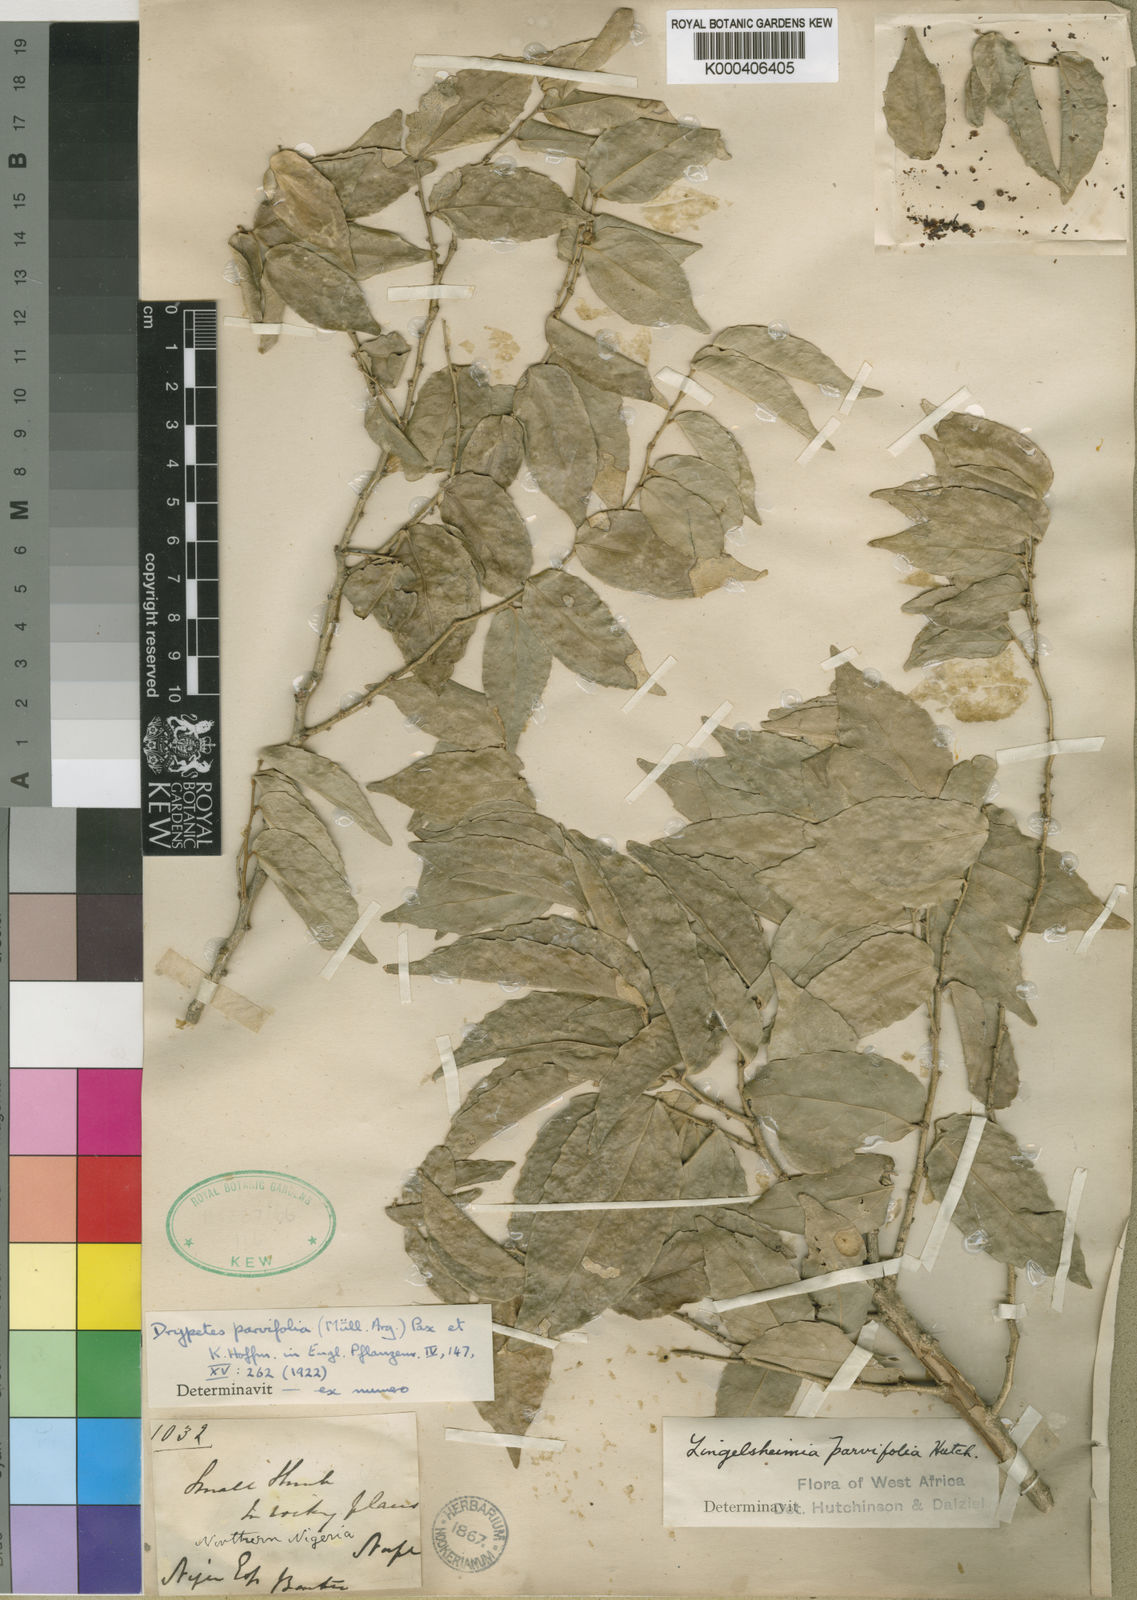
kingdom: Plantae
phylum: Tracheophyta
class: Magnoliopsida
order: Malpighiales
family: Putranjivaceae
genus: Drypetes
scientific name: Drypetes
